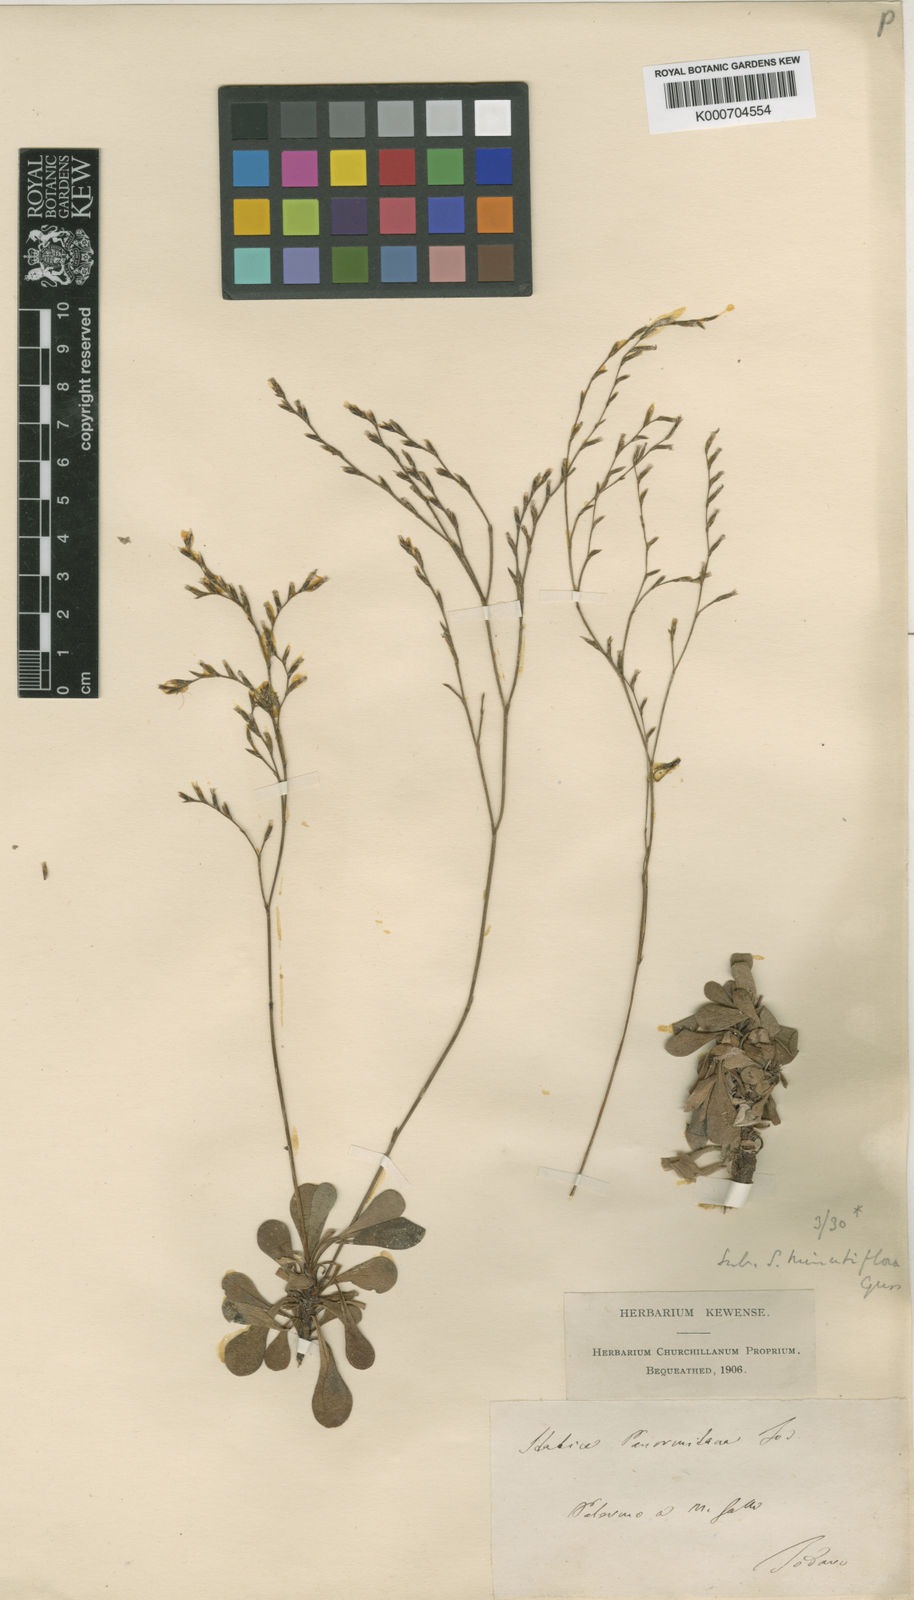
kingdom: Plantae
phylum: Tracheophyta
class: Magnoliopsida
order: Caryophyllales
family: Plumbaginaceae
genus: Limonium
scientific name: Limonium panormitanum
